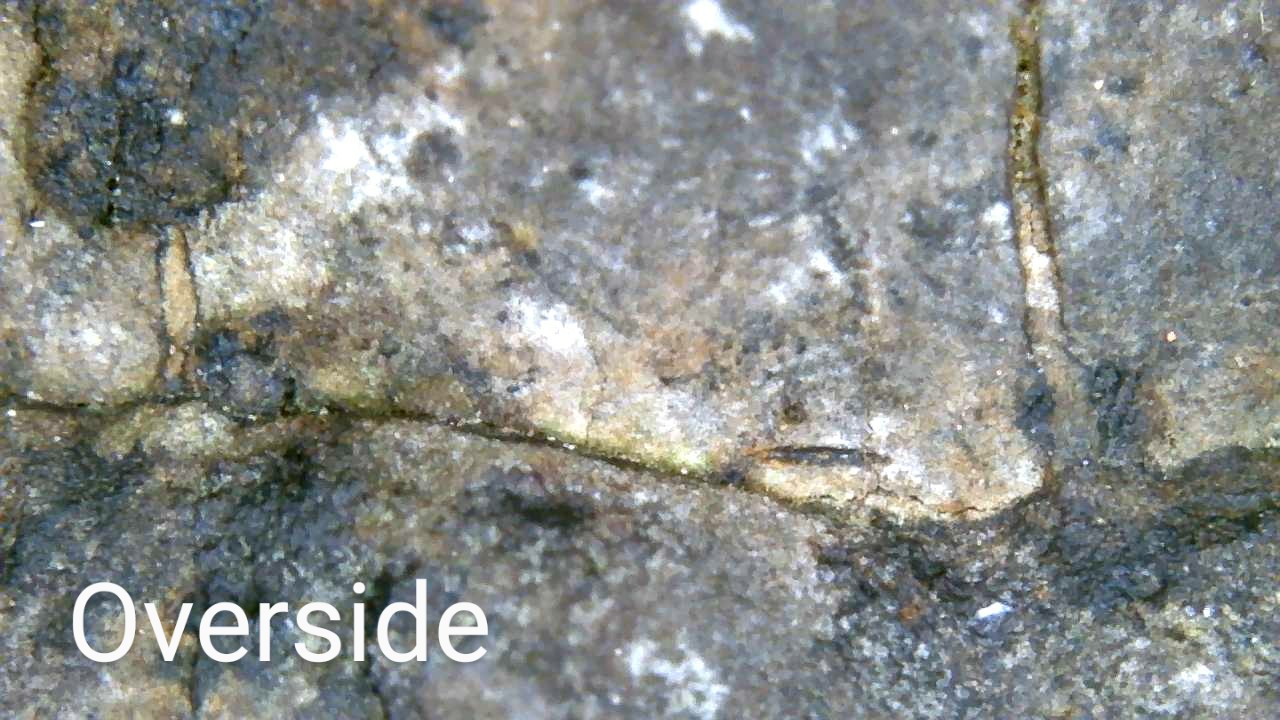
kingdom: Fungi
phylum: Basidiomycota
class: Agaricomycetes
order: Polyporales
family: Fomitopsidaceae
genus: Fomitopsis
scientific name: Fomitopsis pinicola
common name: randbæltet hovporesvamp
